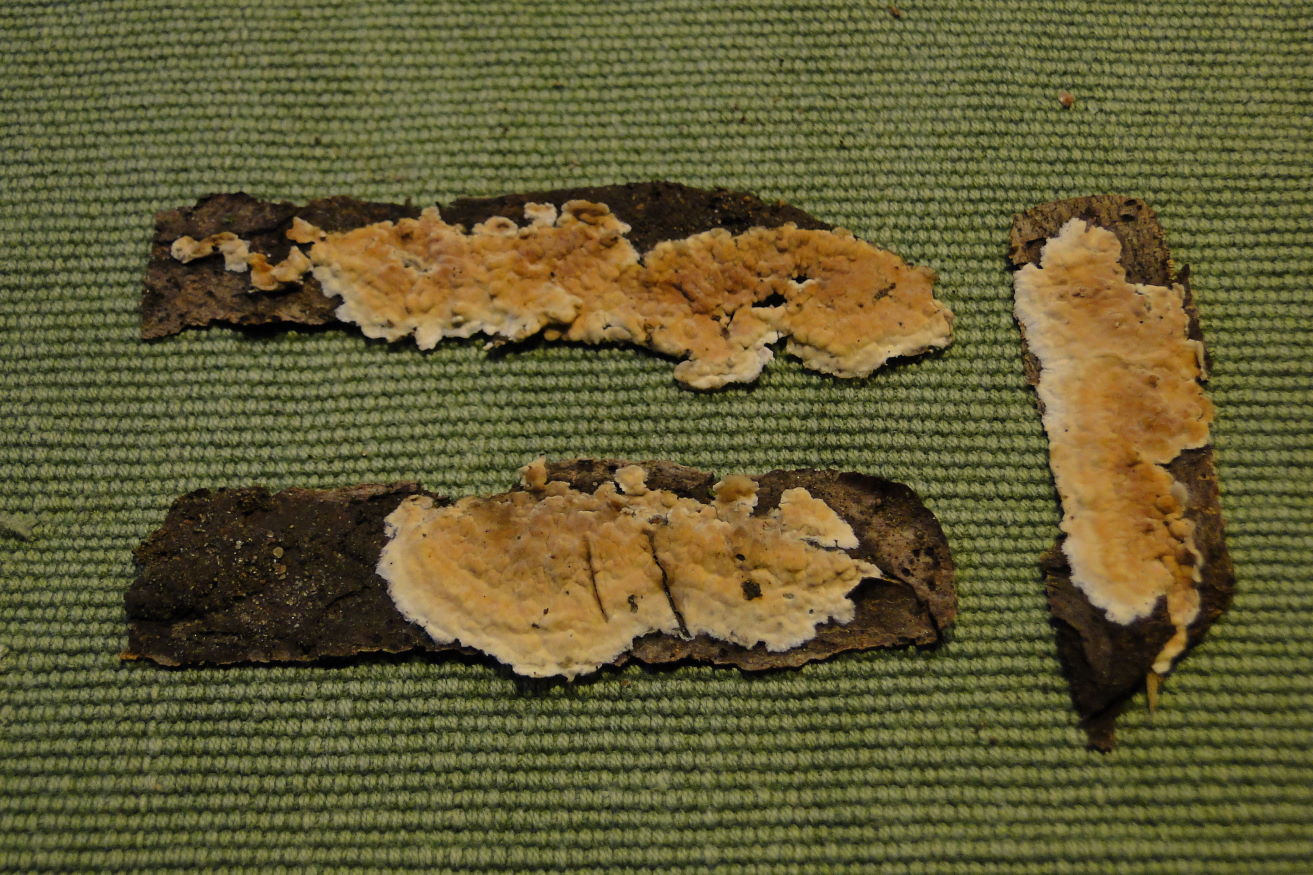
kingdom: Fungi
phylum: Basidiomycota
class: Agaricomycetes
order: Agaricales
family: Physalacriaceae
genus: Cylindrobasidium
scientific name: Cylindrobasidium evolvens
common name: sprækkehinde
